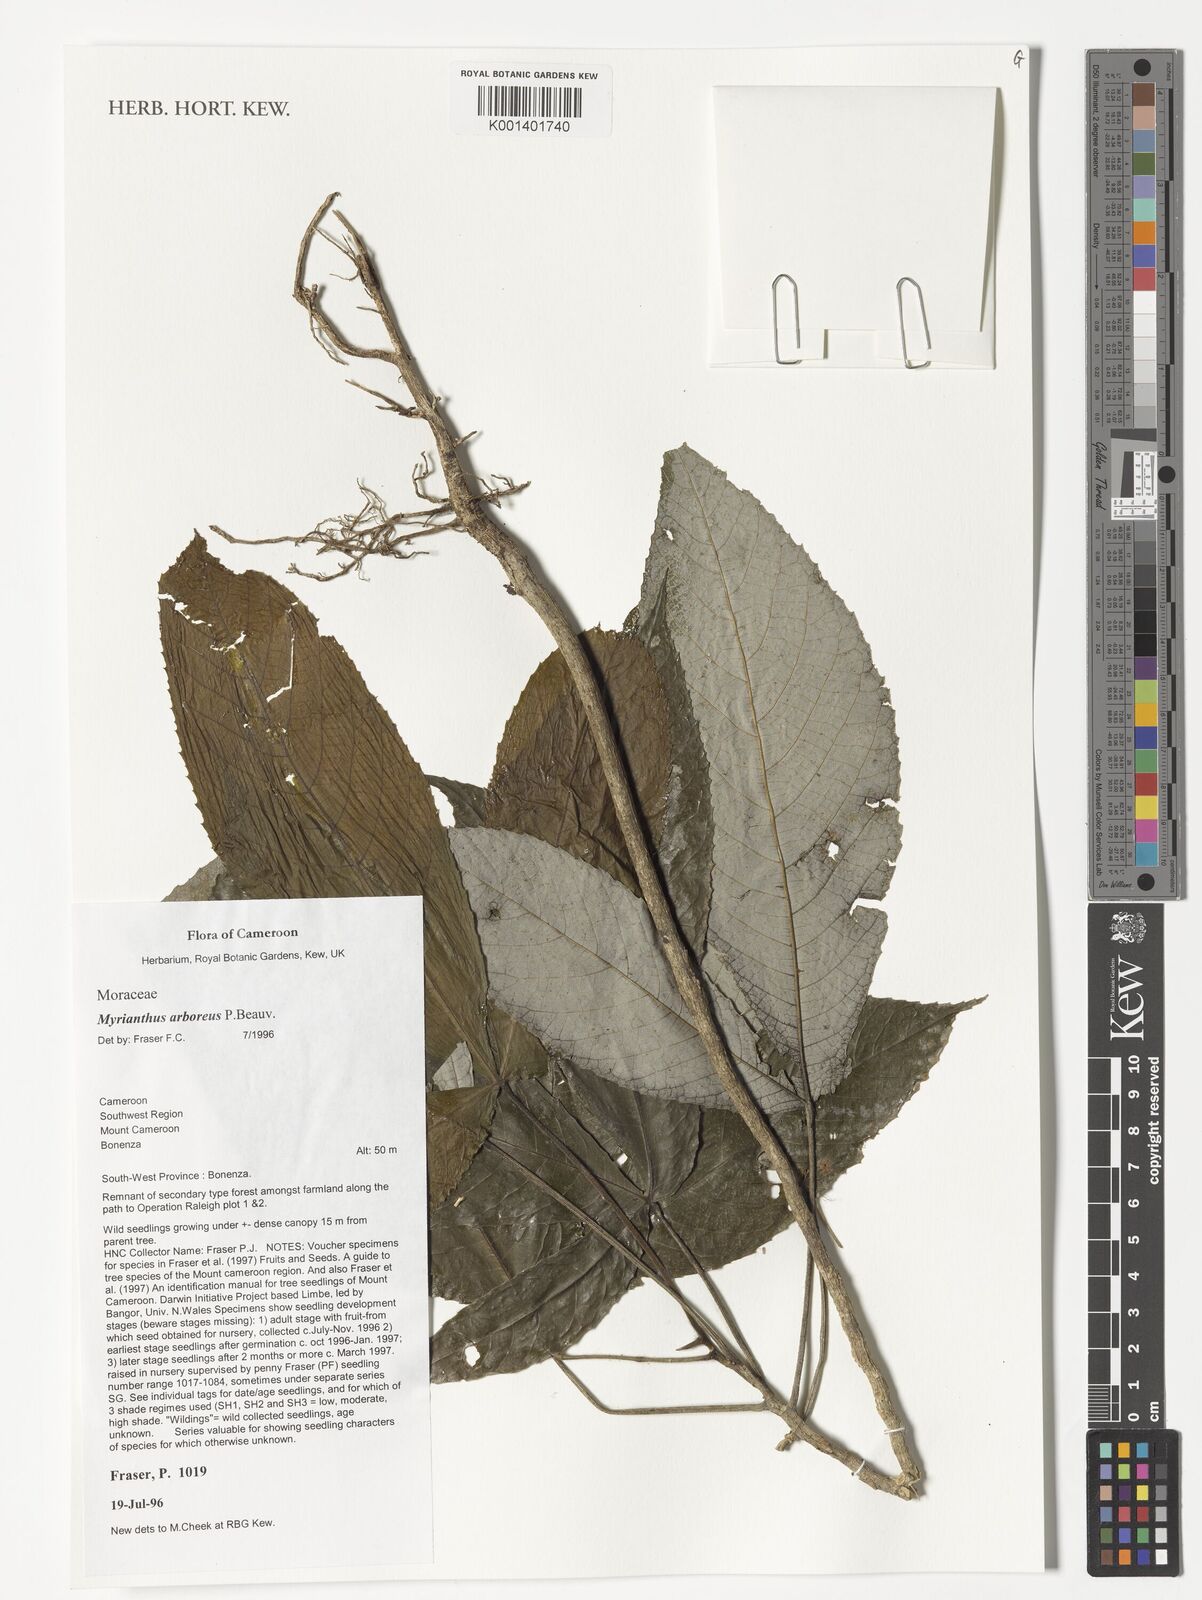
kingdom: Plantae
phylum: Tracheophyta
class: Magnoliopsida
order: Rosales
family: Urticaceae
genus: Myrianthus
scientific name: Myrianthus arboreus
